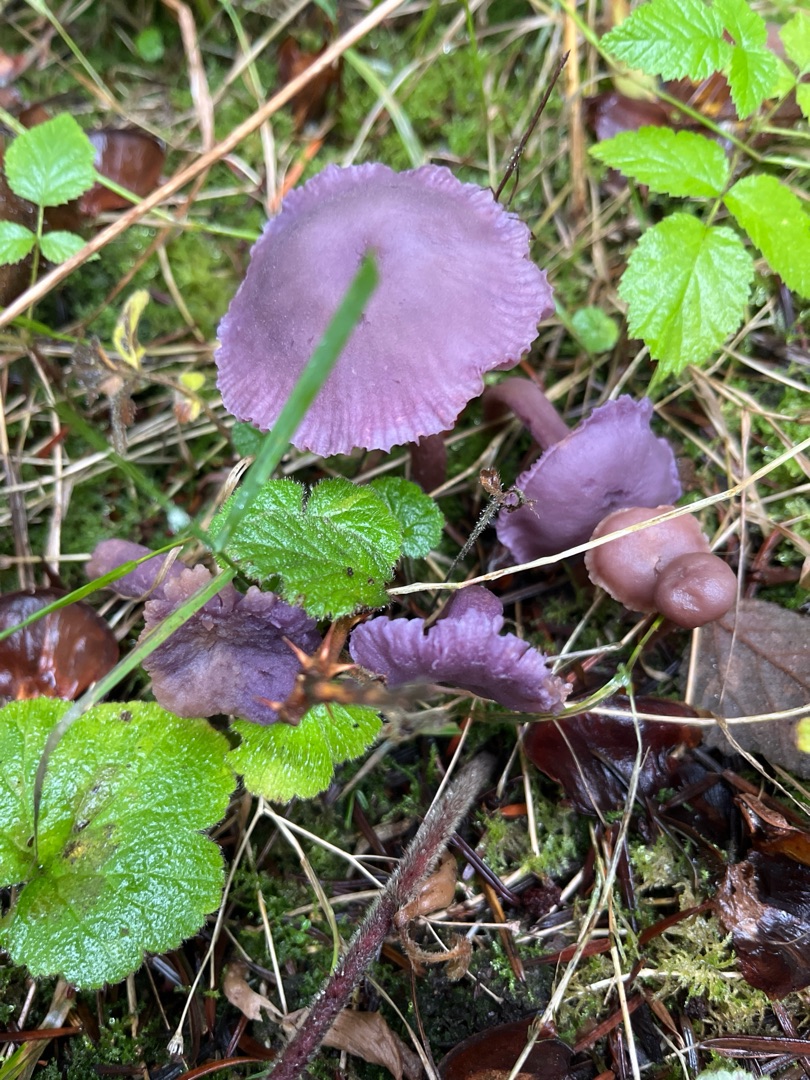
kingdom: Fungi
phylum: Basidiomycota
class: Agaricomycetes
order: Agaricales
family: Hydnangiaceae
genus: Laccaria
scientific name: Laccaria amethystina
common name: Violet ametysthat
